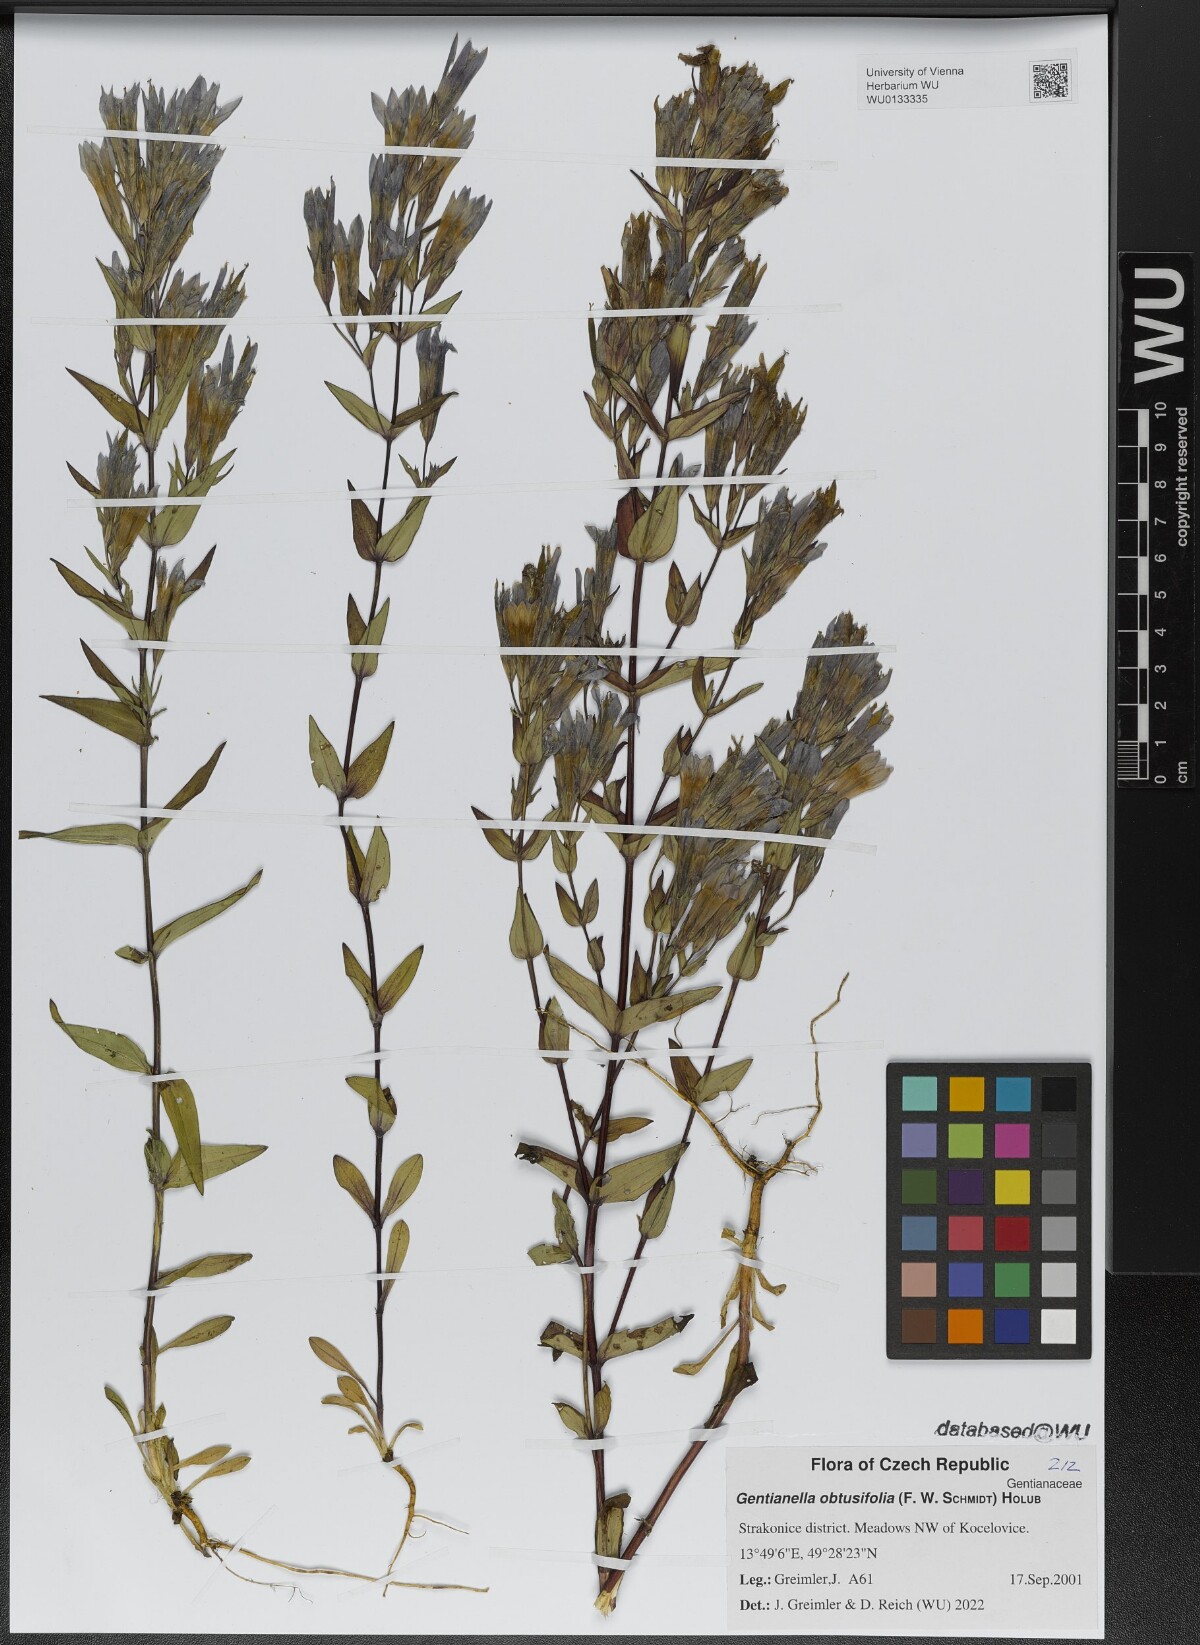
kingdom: Plantae
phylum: Tracheophyta
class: Magnoliopsida
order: Gentianales
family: Gentianaceae
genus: Gentianella
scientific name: Gentianella obtusifolia
